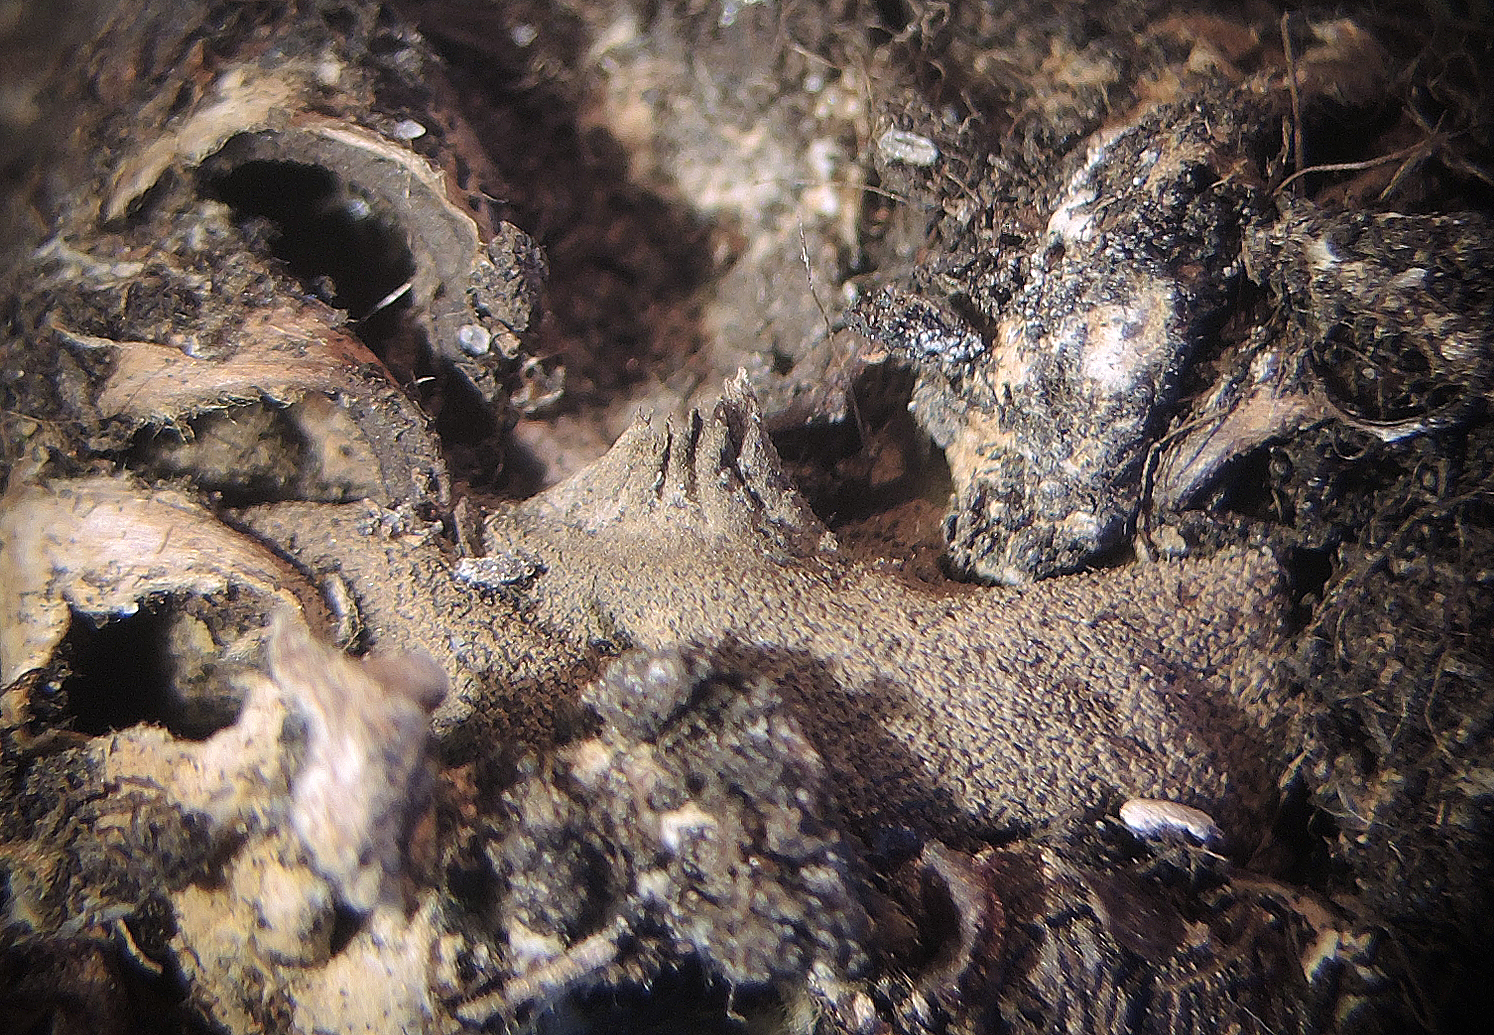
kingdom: Fungi
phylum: Basidiomycota
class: Agaricomycetes
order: Geastrales
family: Geastraceae
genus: Geastrum
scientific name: Geastrum campestre
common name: ru stjernebold
